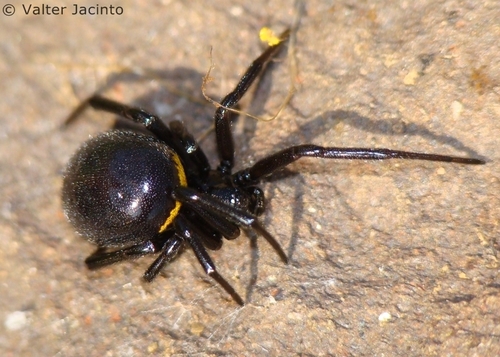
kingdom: Animalia
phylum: Arthropoda
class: Arachnida
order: Araneae
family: Theridiidae
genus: Steatoda
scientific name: Steatoda paykulliana
